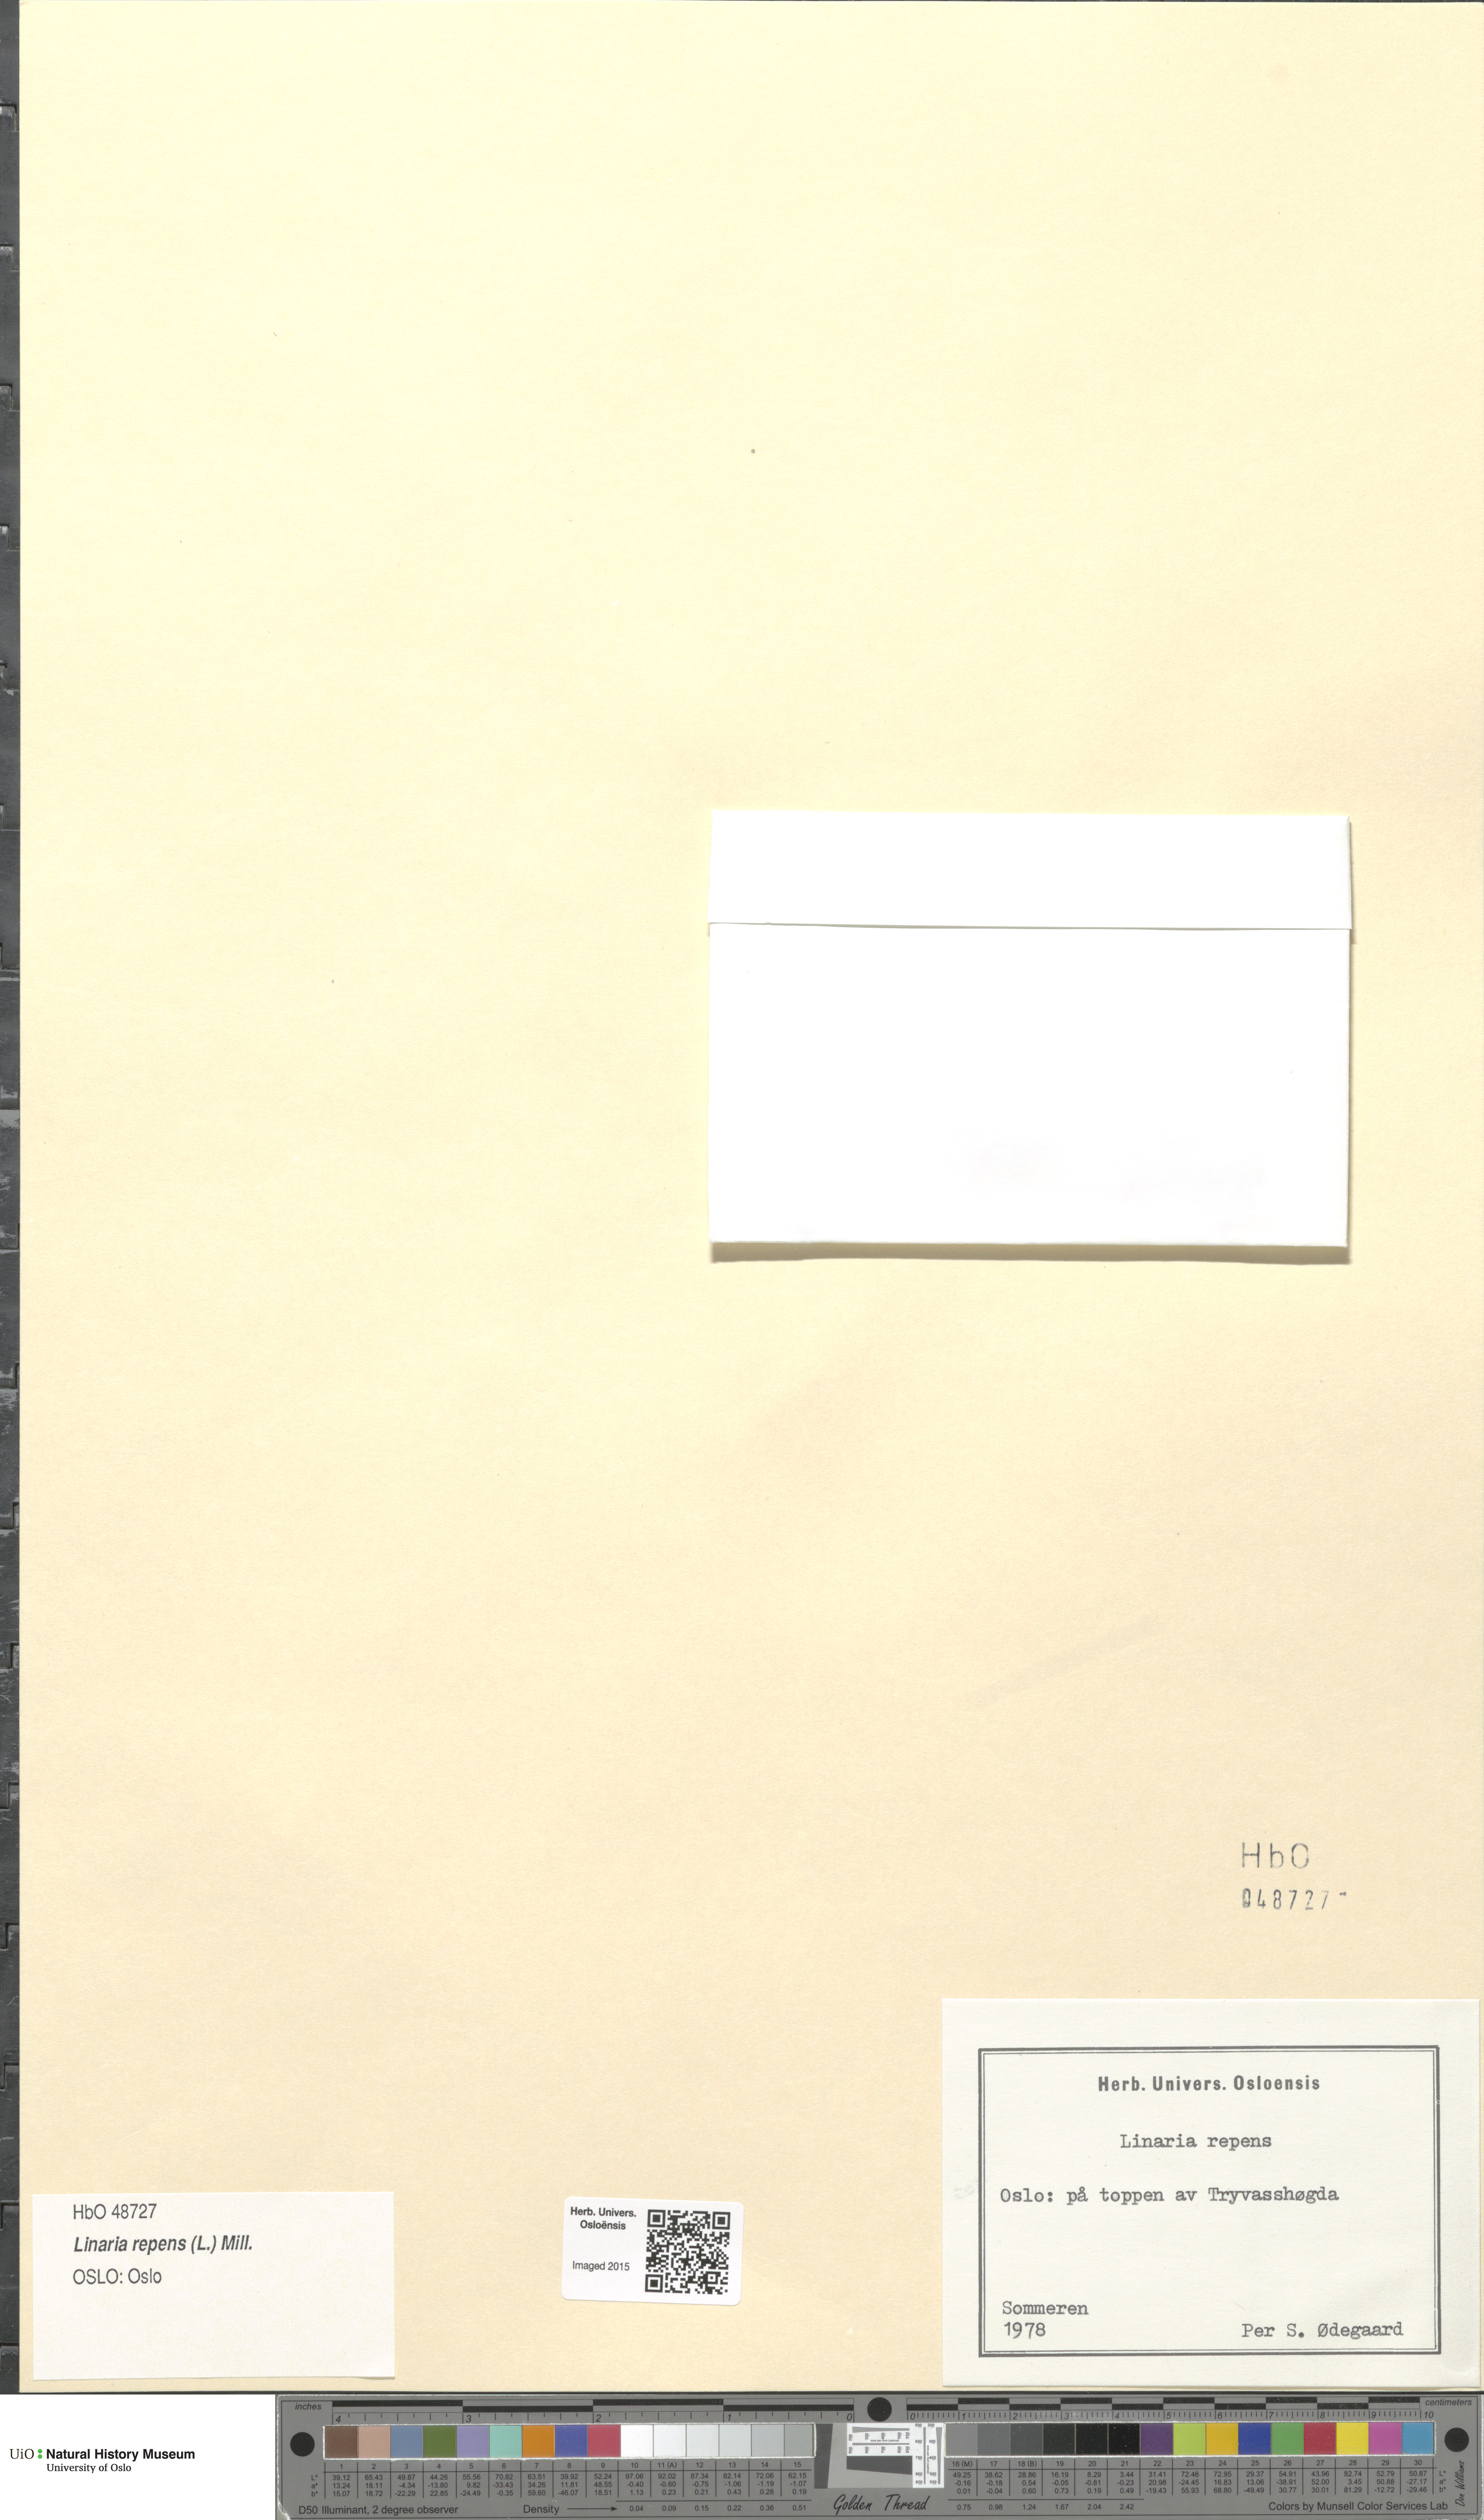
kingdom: Plantae
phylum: Tracheophyta
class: Magnoliopsida
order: Lamiales
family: Plantaginaceae
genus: Linaria
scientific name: Linaria repens
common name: Pale toadflax
